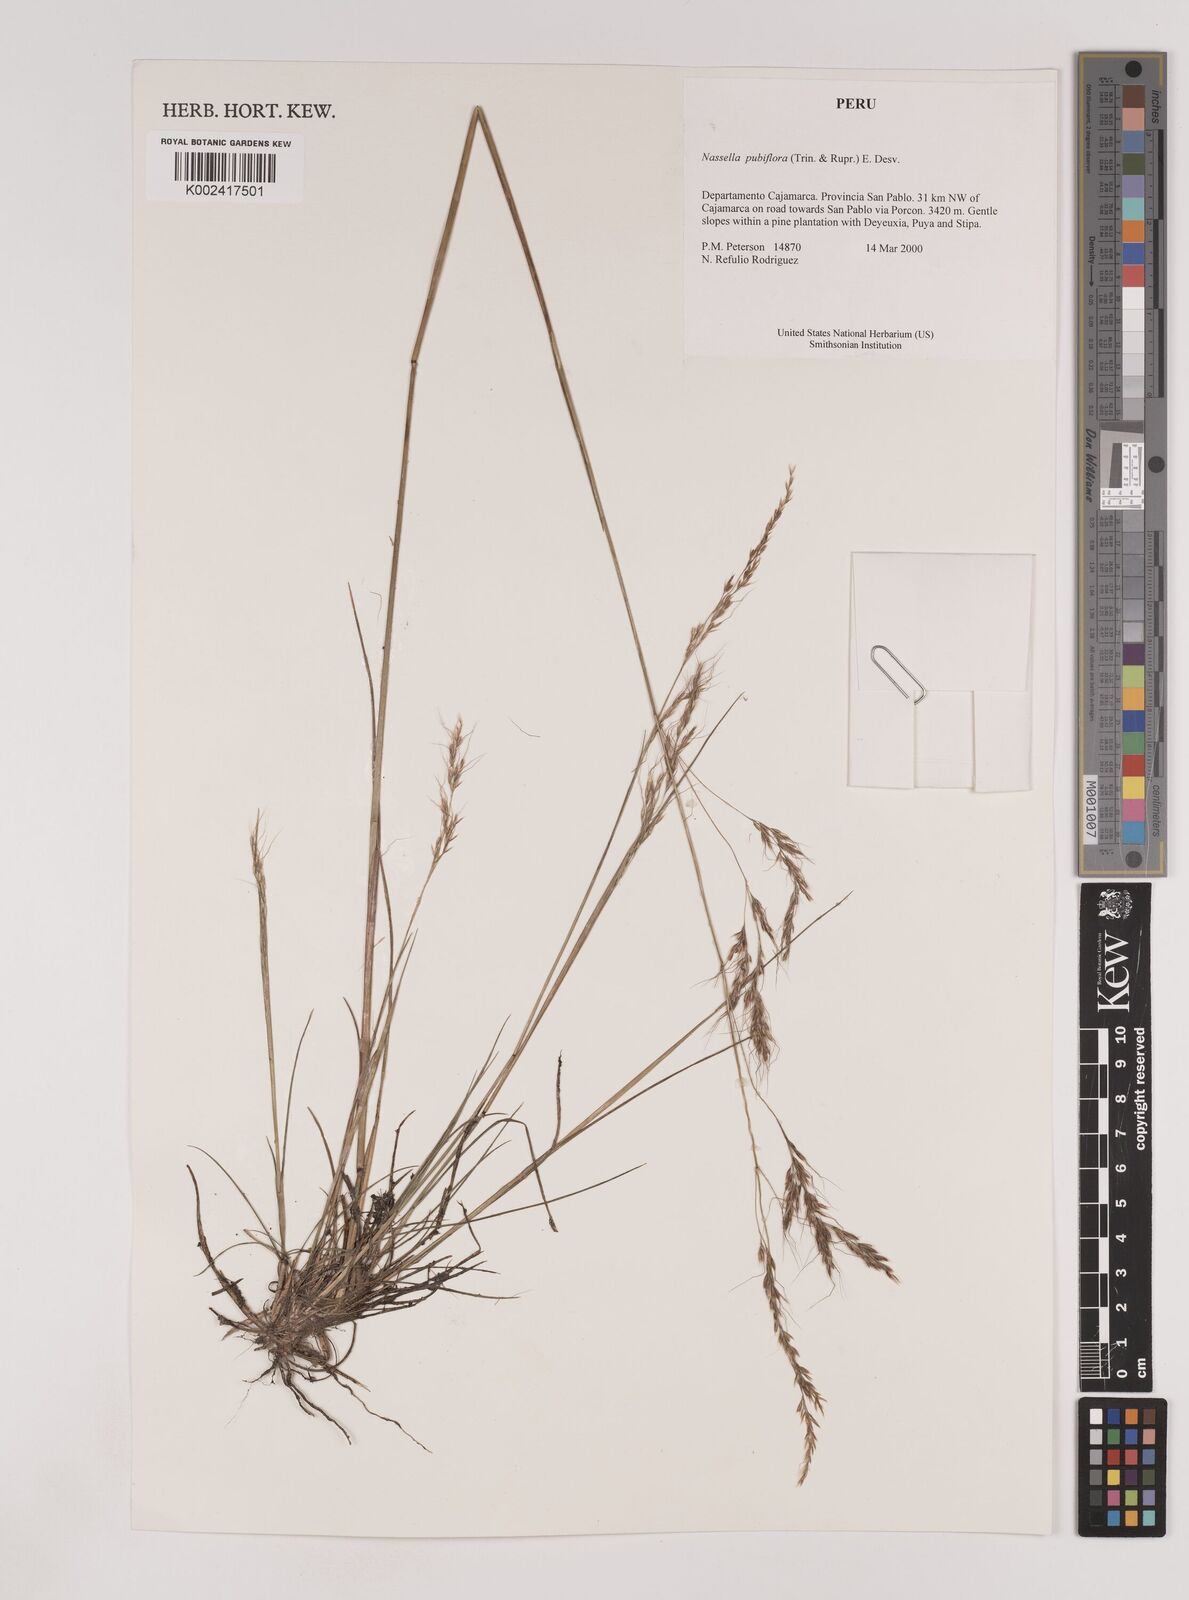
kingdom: Plantae
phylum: Tracheophyta
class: Liliopsida
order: Poales
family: Poaceae
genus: Nassella
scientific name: Nassella pubiflora
